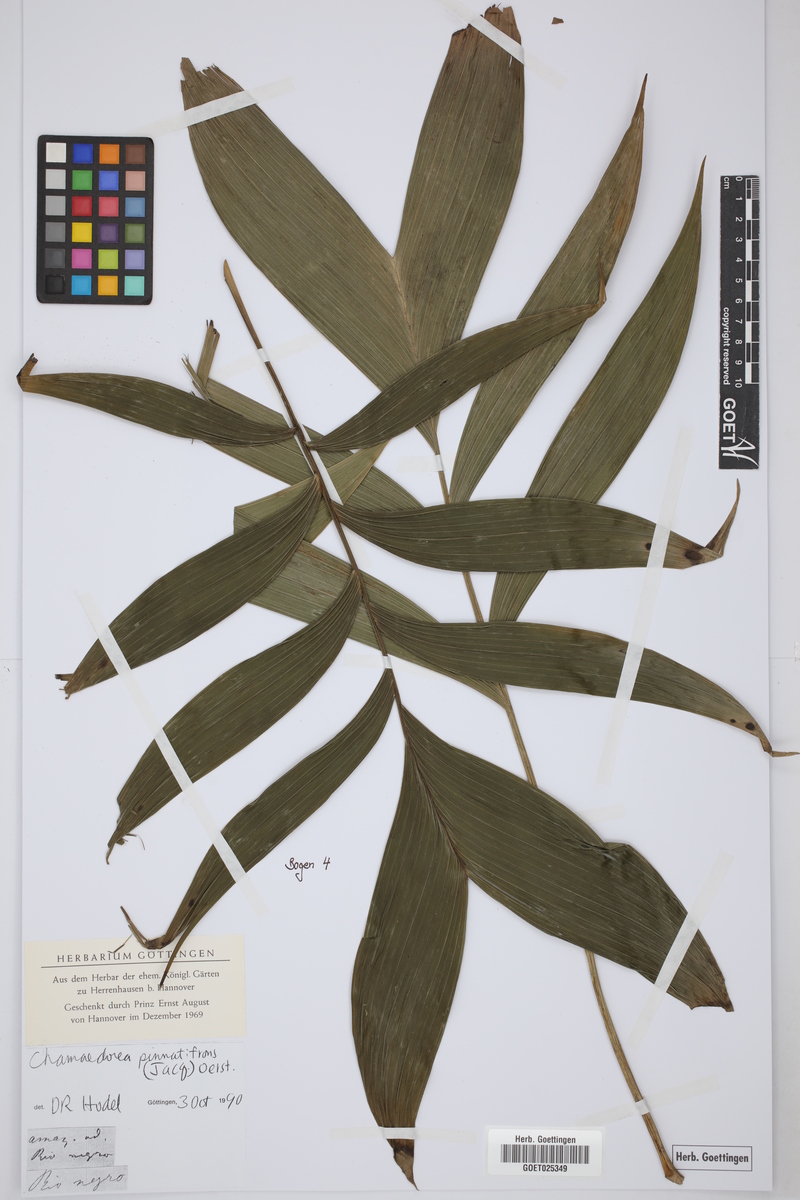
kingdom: Plantae
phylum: Tracheophyta
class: Liliopsida
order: Arecales
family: Arecaceae
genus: Chamaedorea
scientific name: Chamaedorea pinnatifrons
